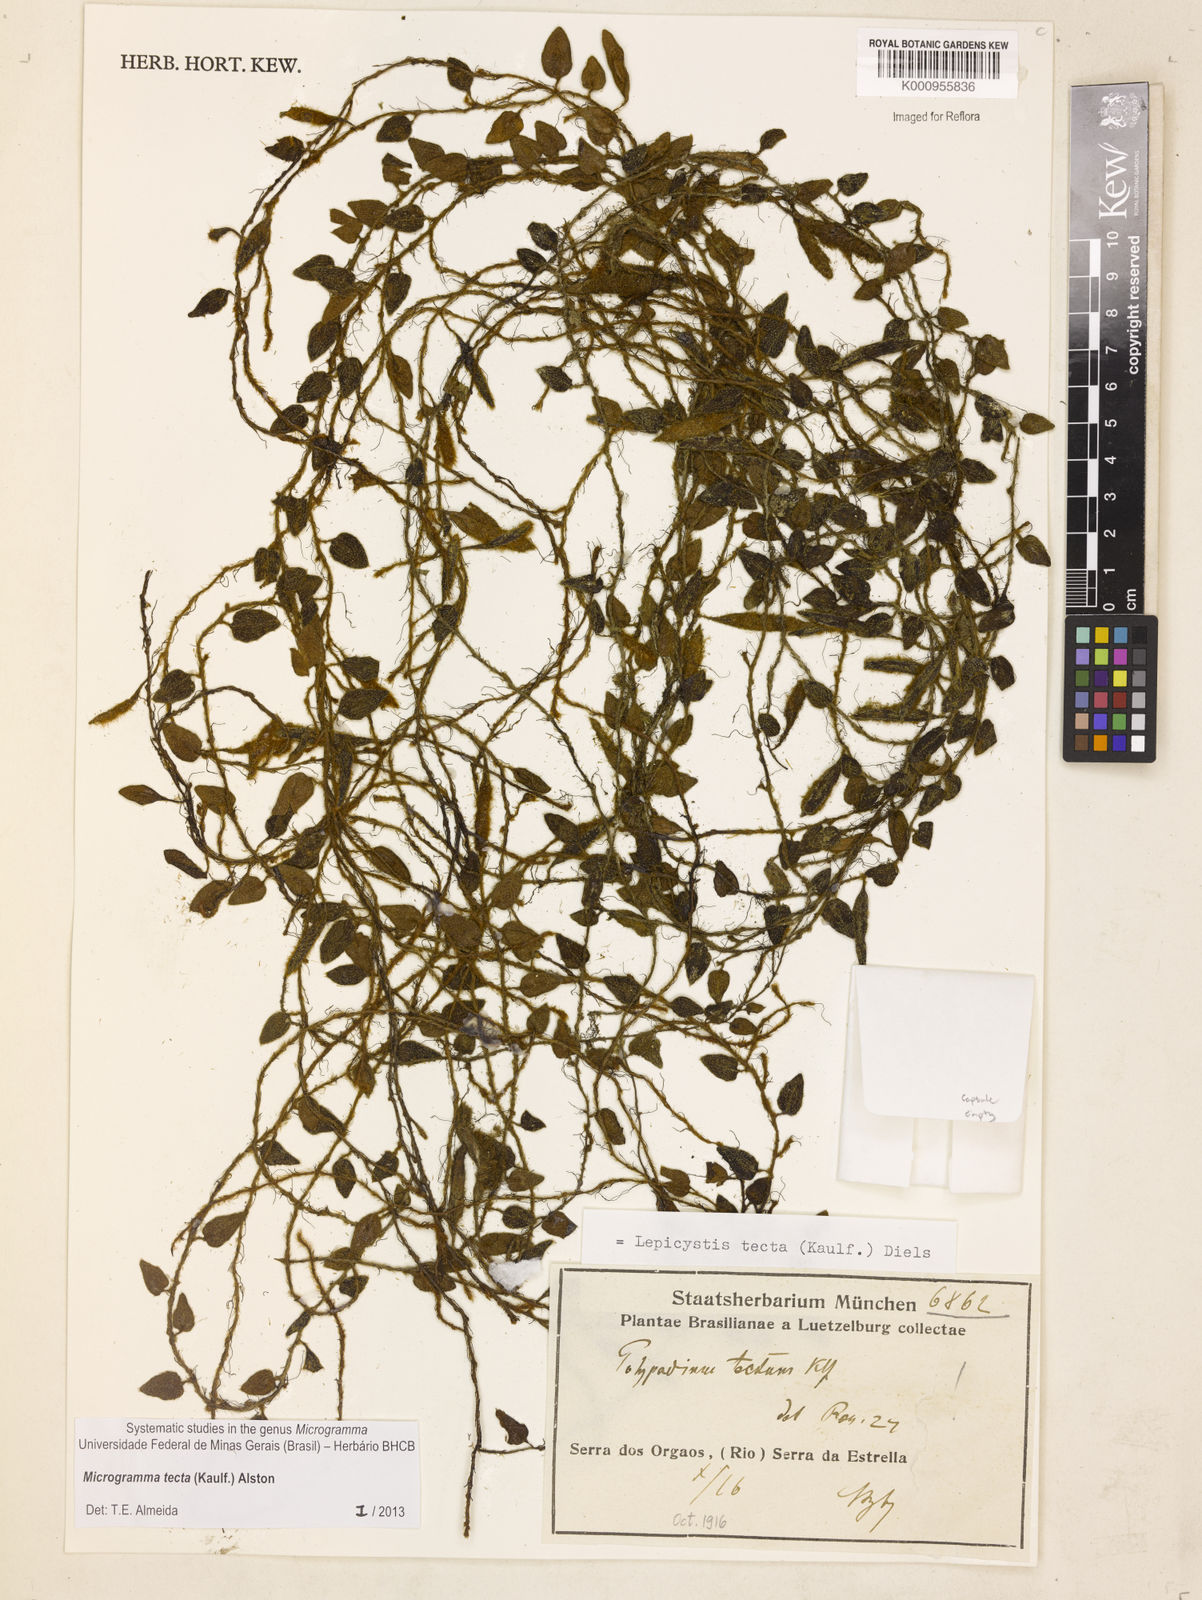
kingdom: Plantae
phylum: Tracheophyta
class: Polypodiopsida
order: Polypodiales
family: Polypodiaceae
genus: Microgramma
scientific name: Microgramma tecta
